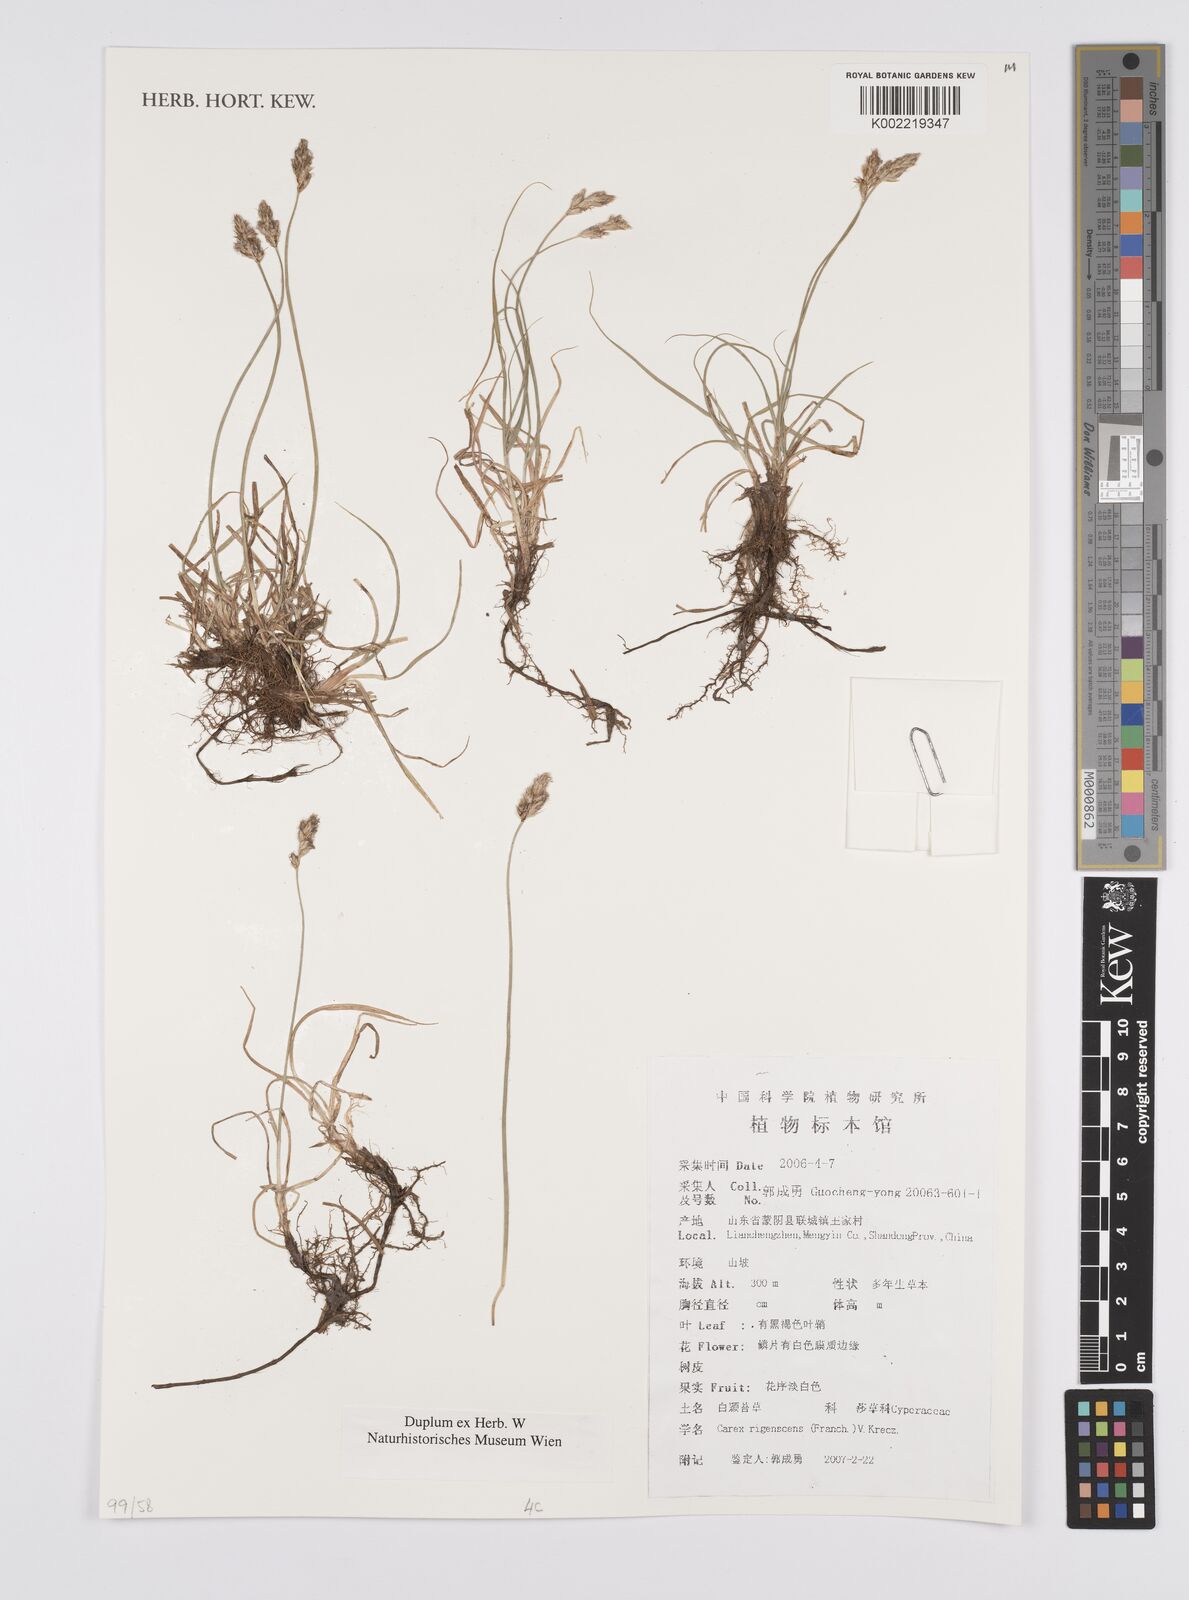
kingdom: Plantae
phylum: Tracheophyta
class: Liliopsida
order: Poales
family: Cyperaceae
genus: Carex
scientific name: Carex duriuscula
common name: Involute-leaved sedge
